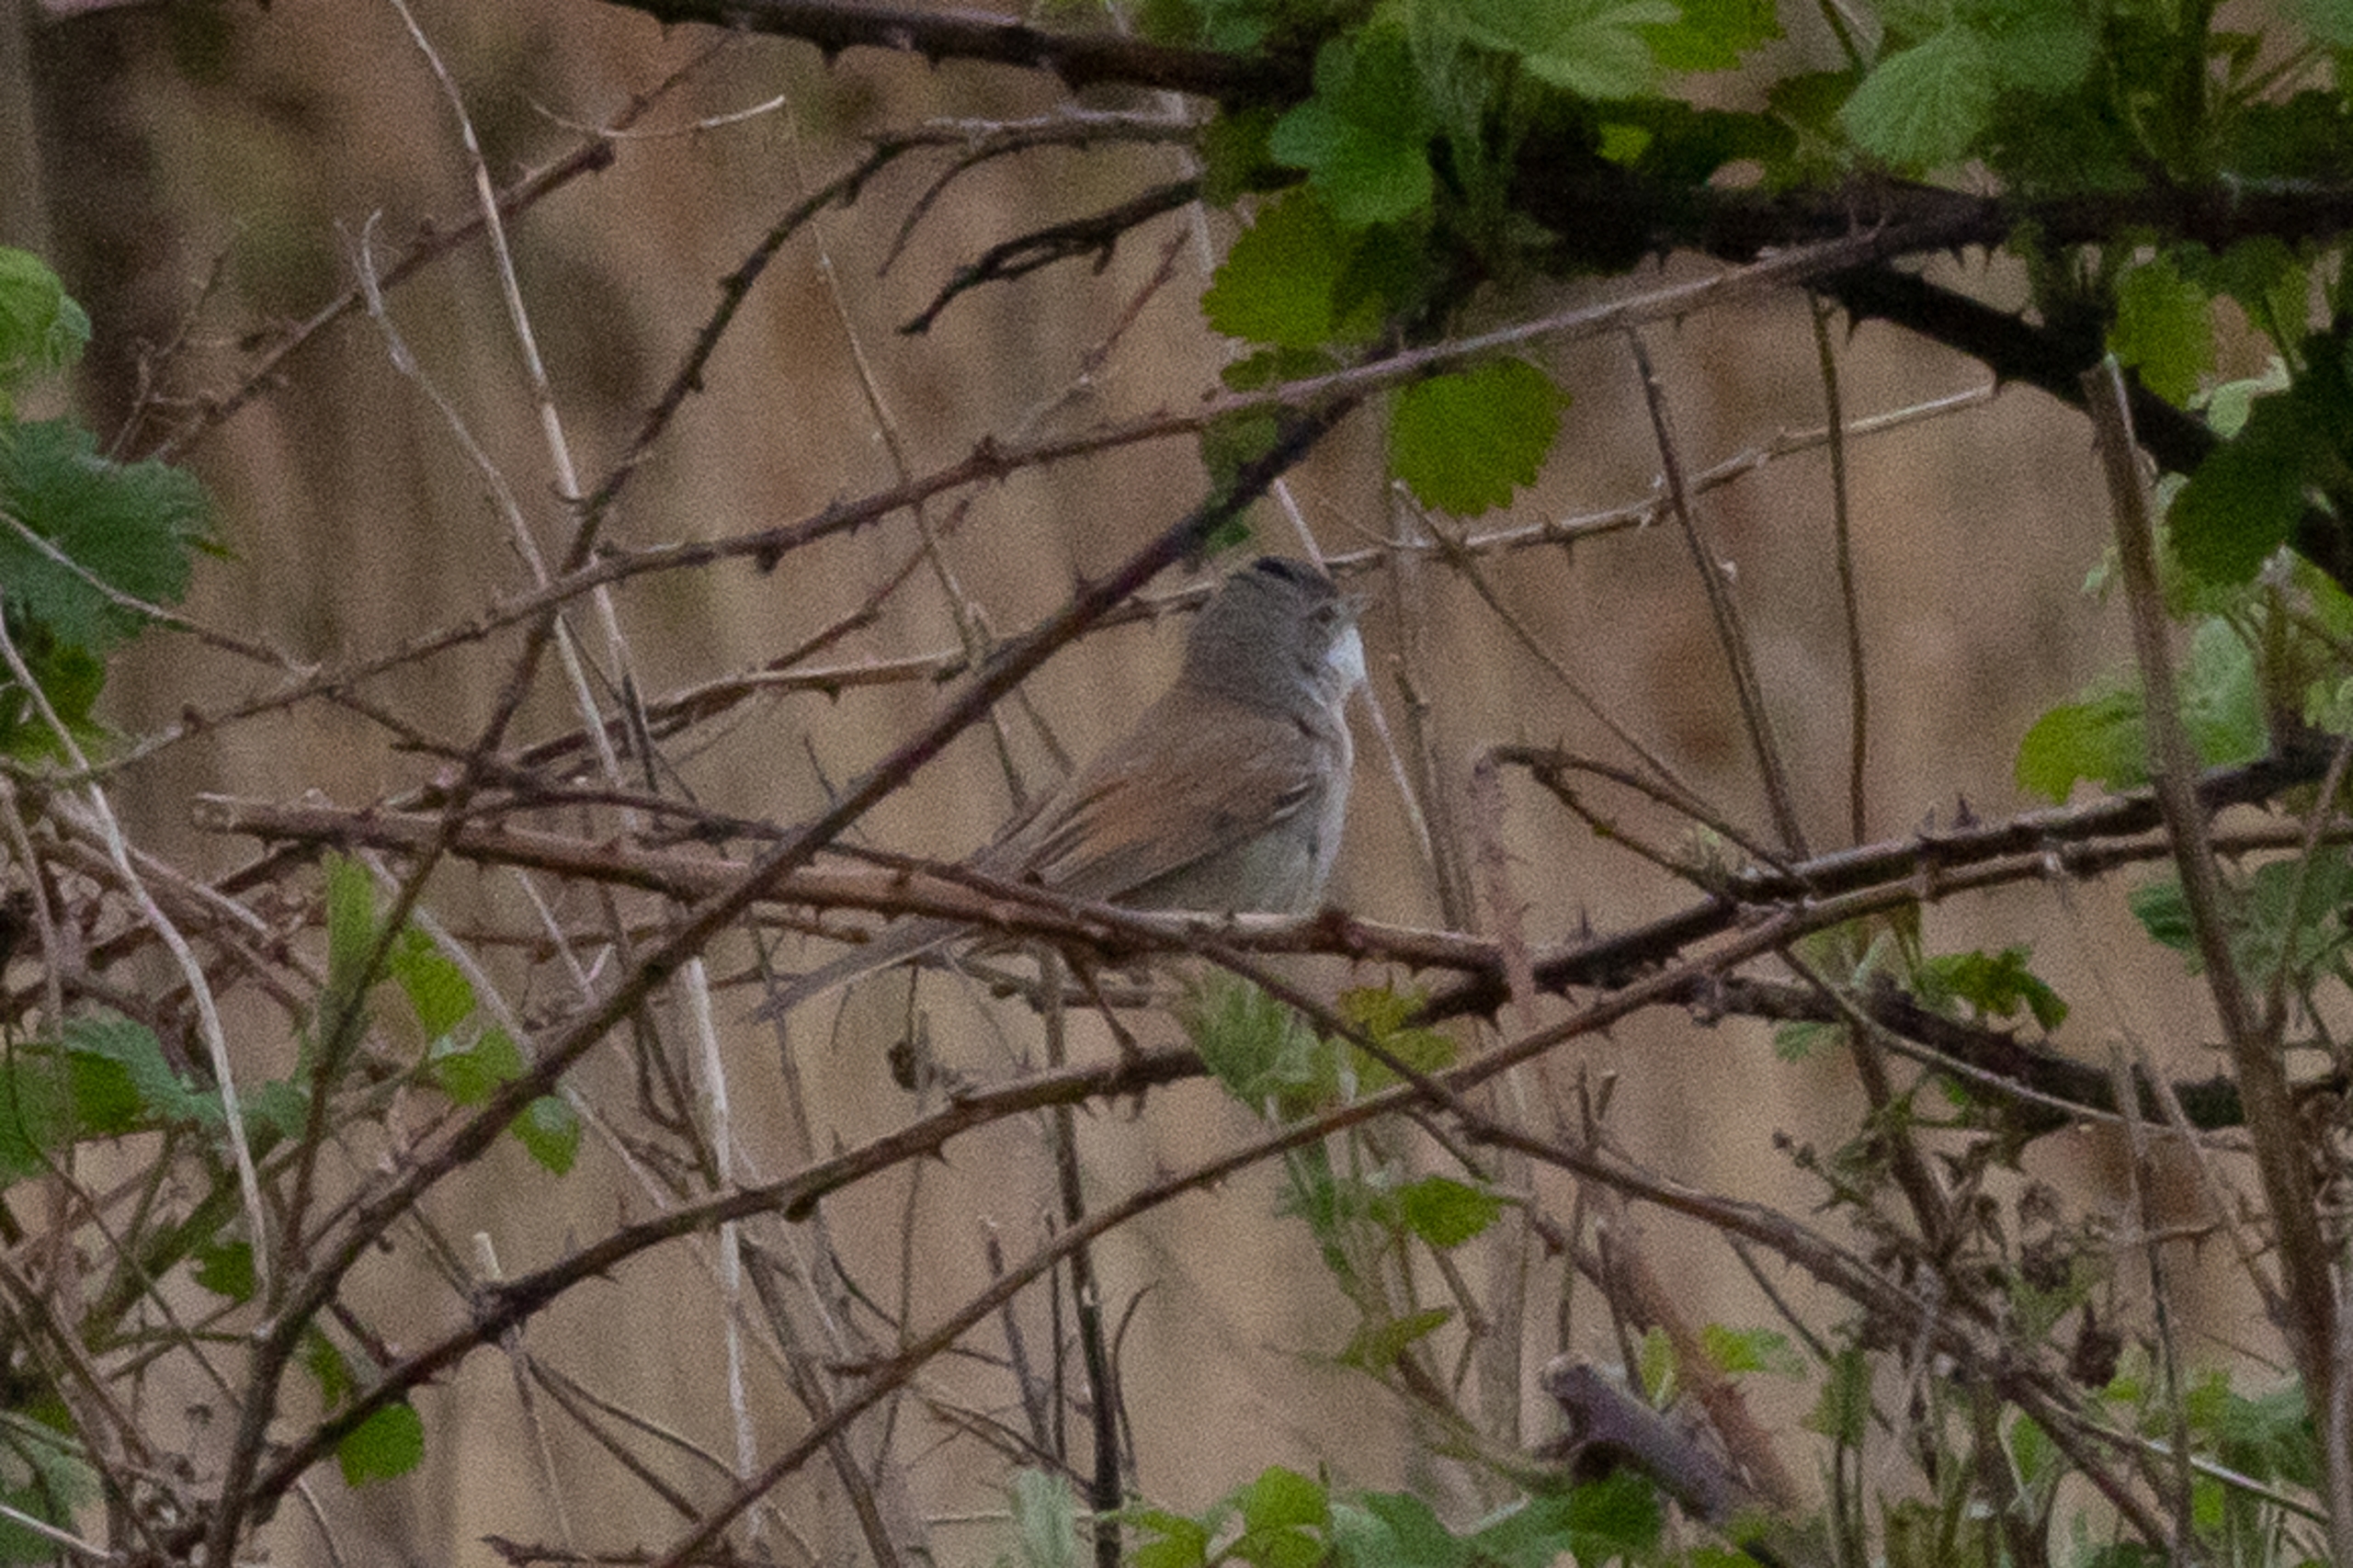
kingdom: Animalia
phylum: Chordata
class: Aves
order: Passeriformes
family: Sylviidae
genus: Sylvia
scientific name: Sylvia communis
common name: Tornsanger
